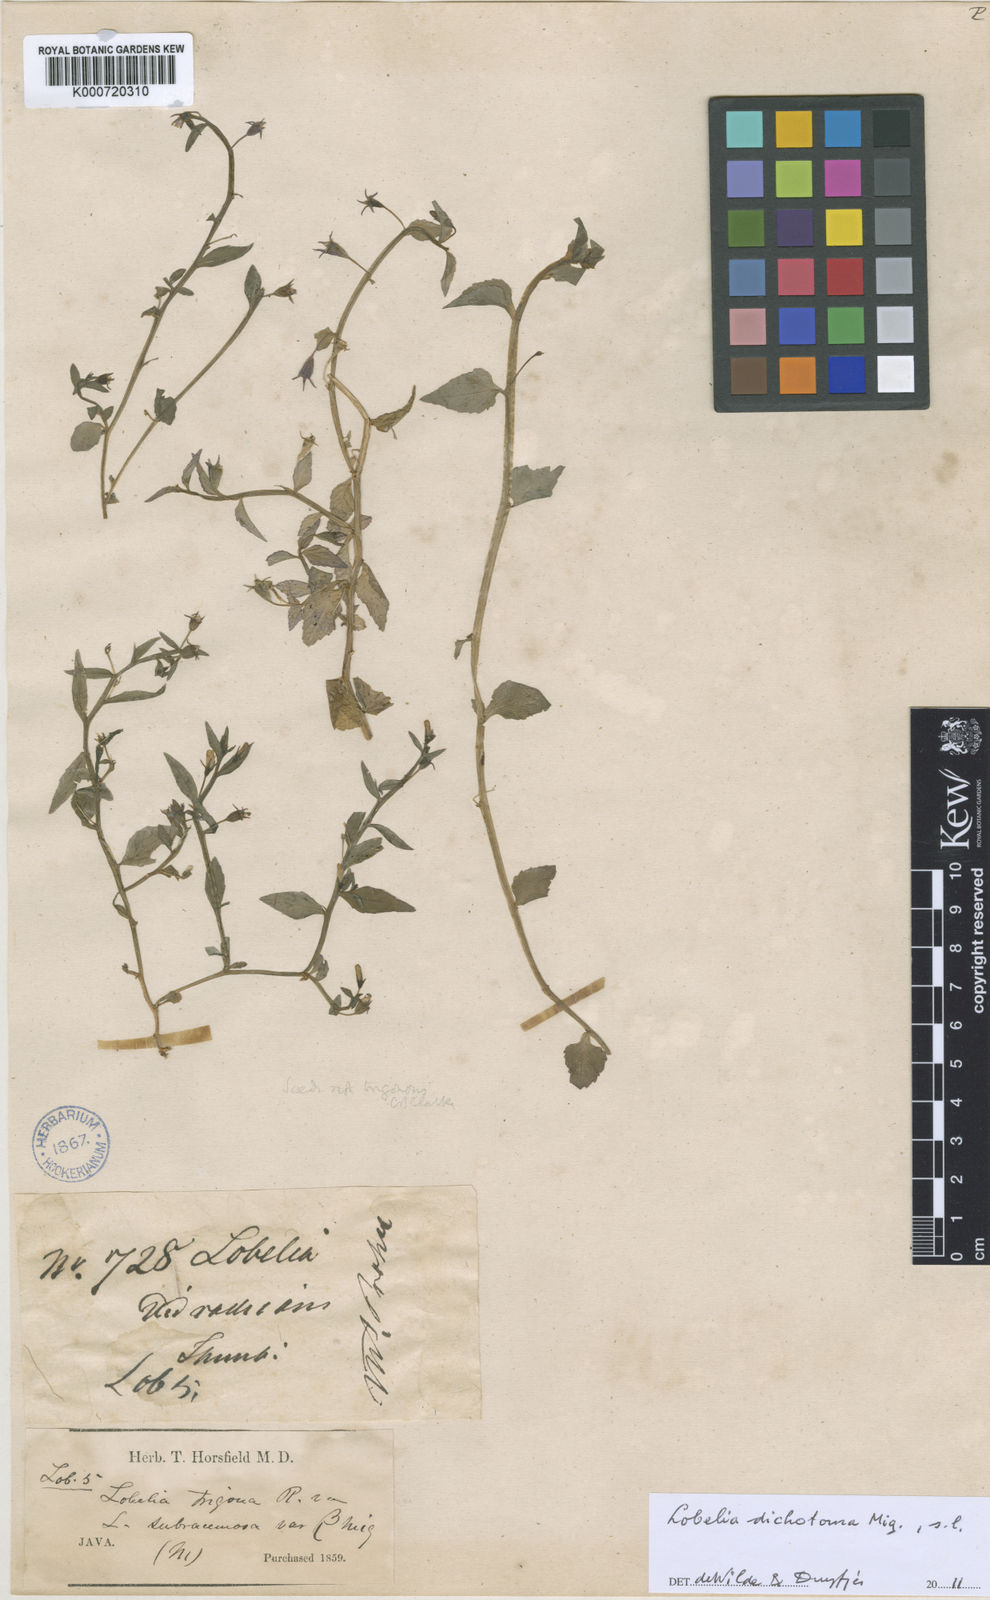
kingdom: Plantae
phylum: Tracheophyta
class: Magnoliopsida
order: Asterales
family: Campanulaceae
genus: Lobelia
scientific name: Lobelia reinwardtiana
